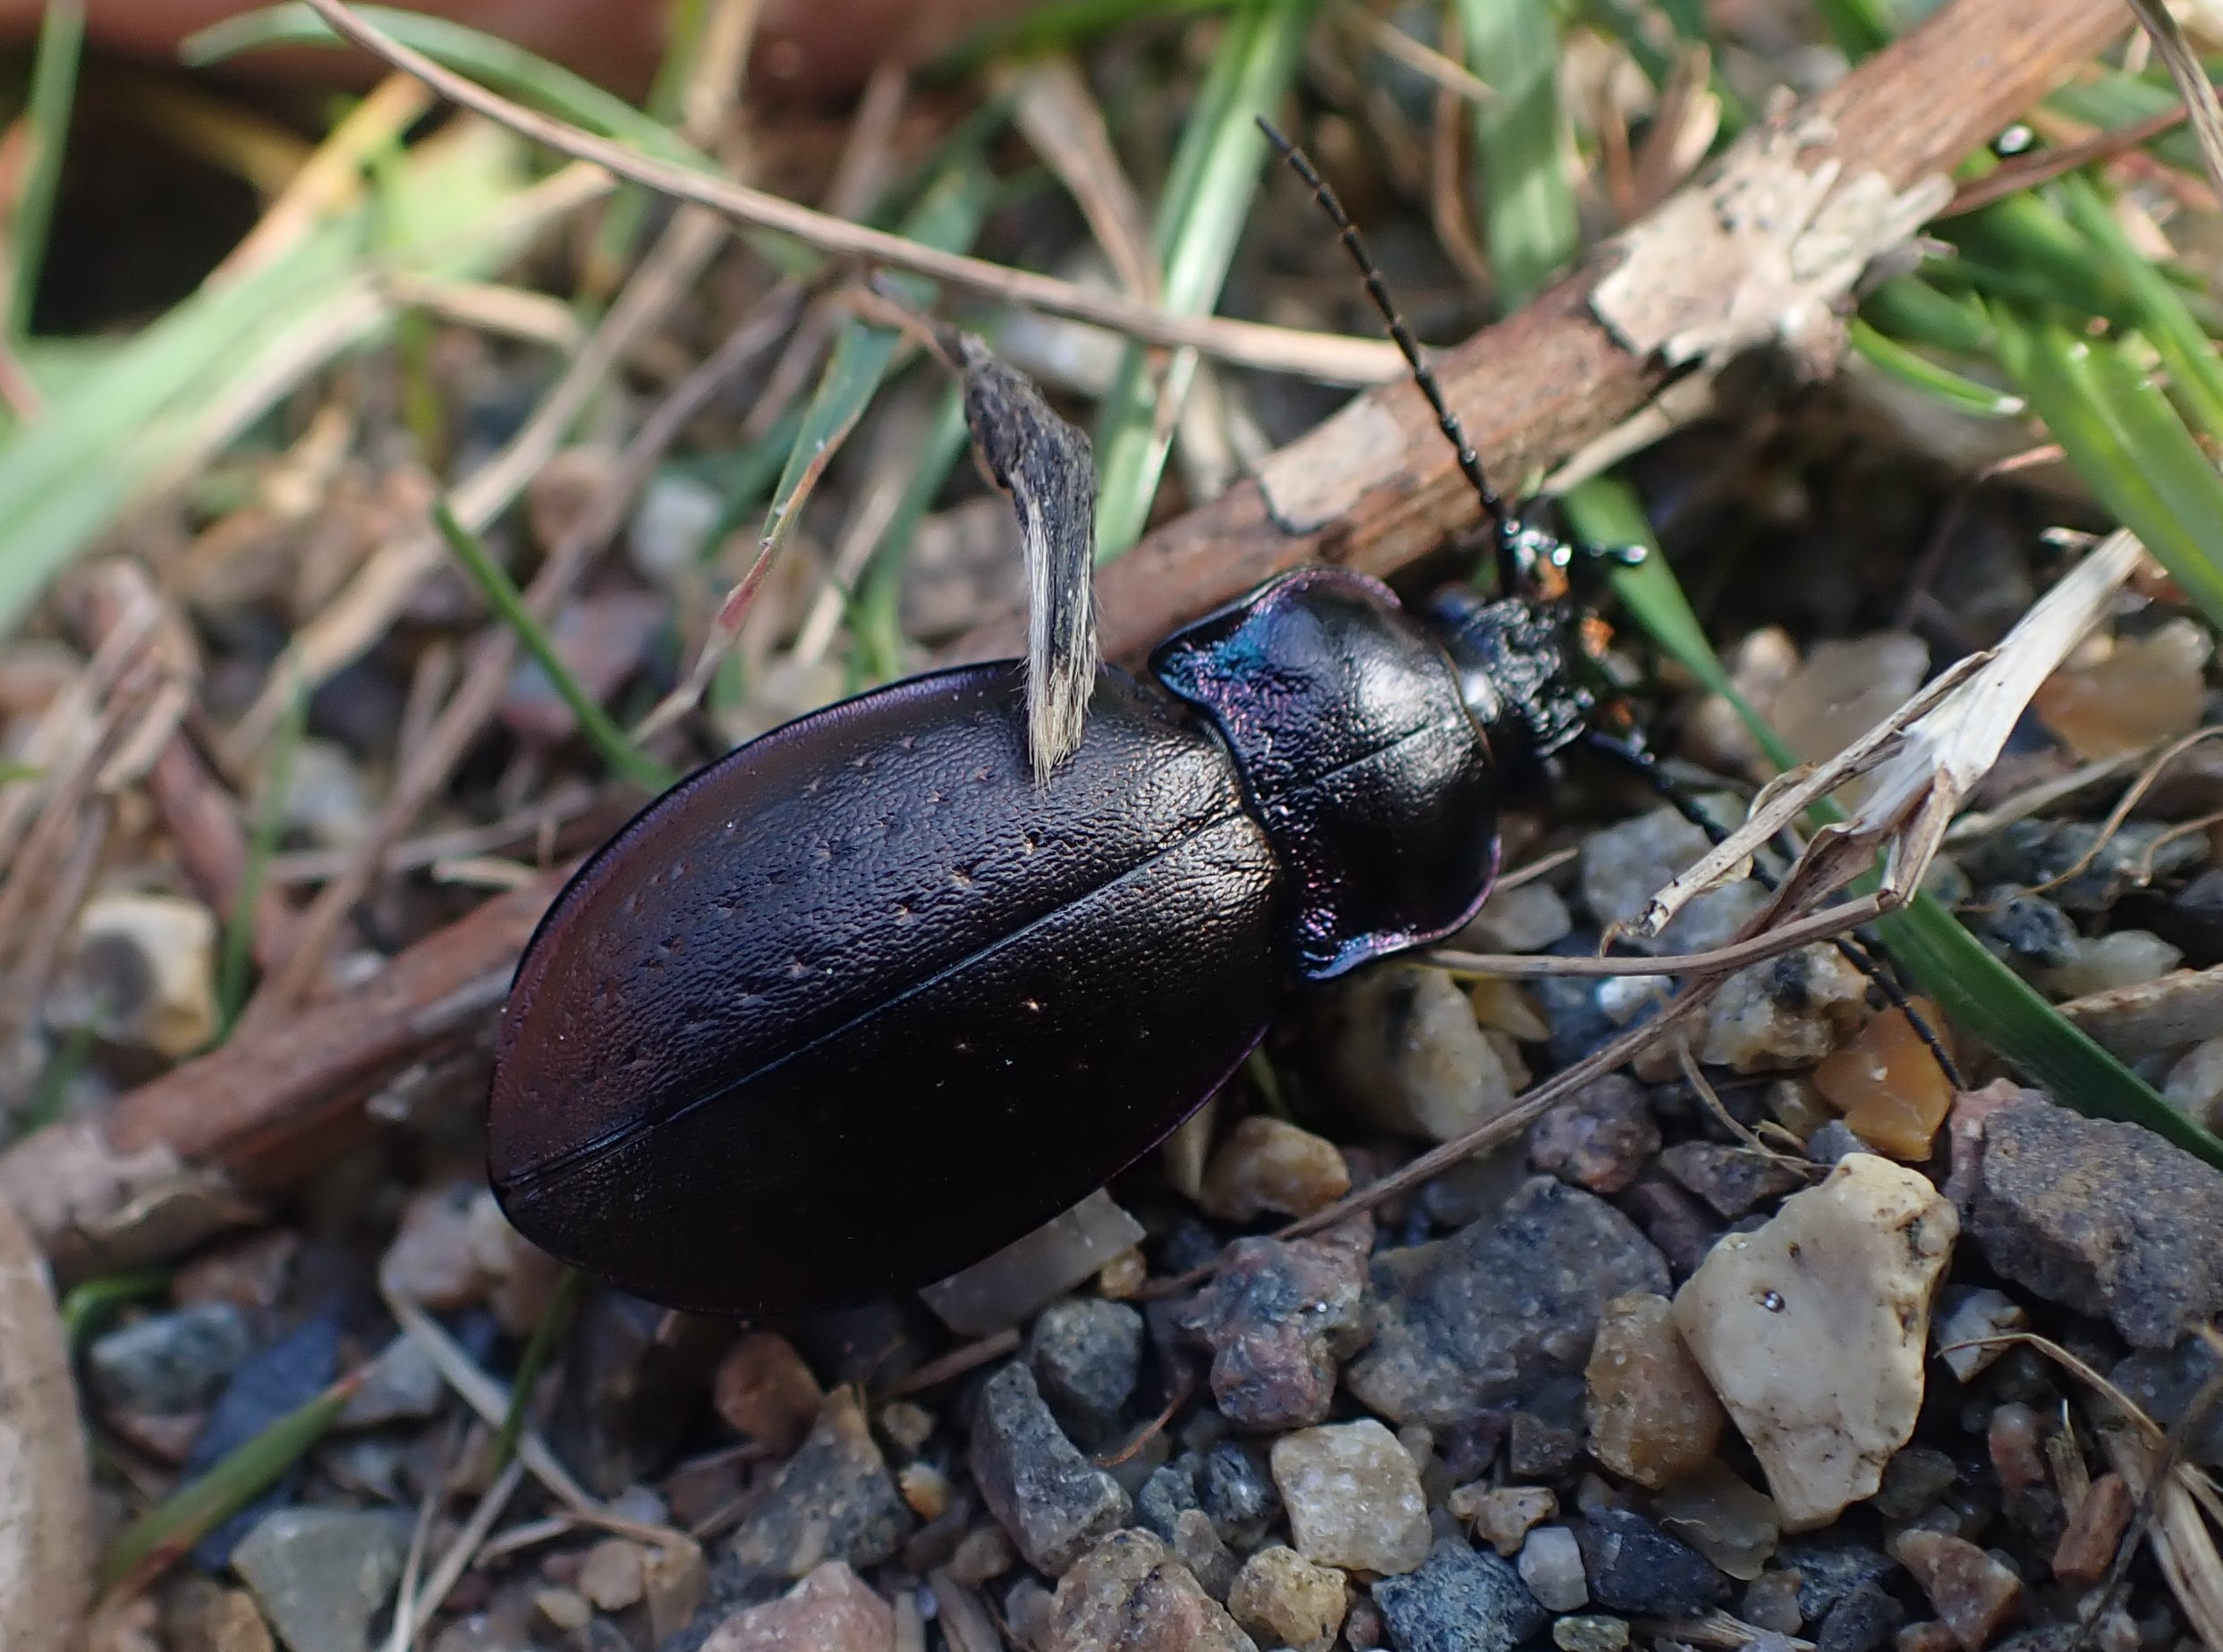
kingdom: Animalia
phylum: Arthropoda
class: Insecta
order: Coleoptera
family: Carabidae
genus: Carabus
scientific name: Carabus nemoralis
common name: Kratløber
